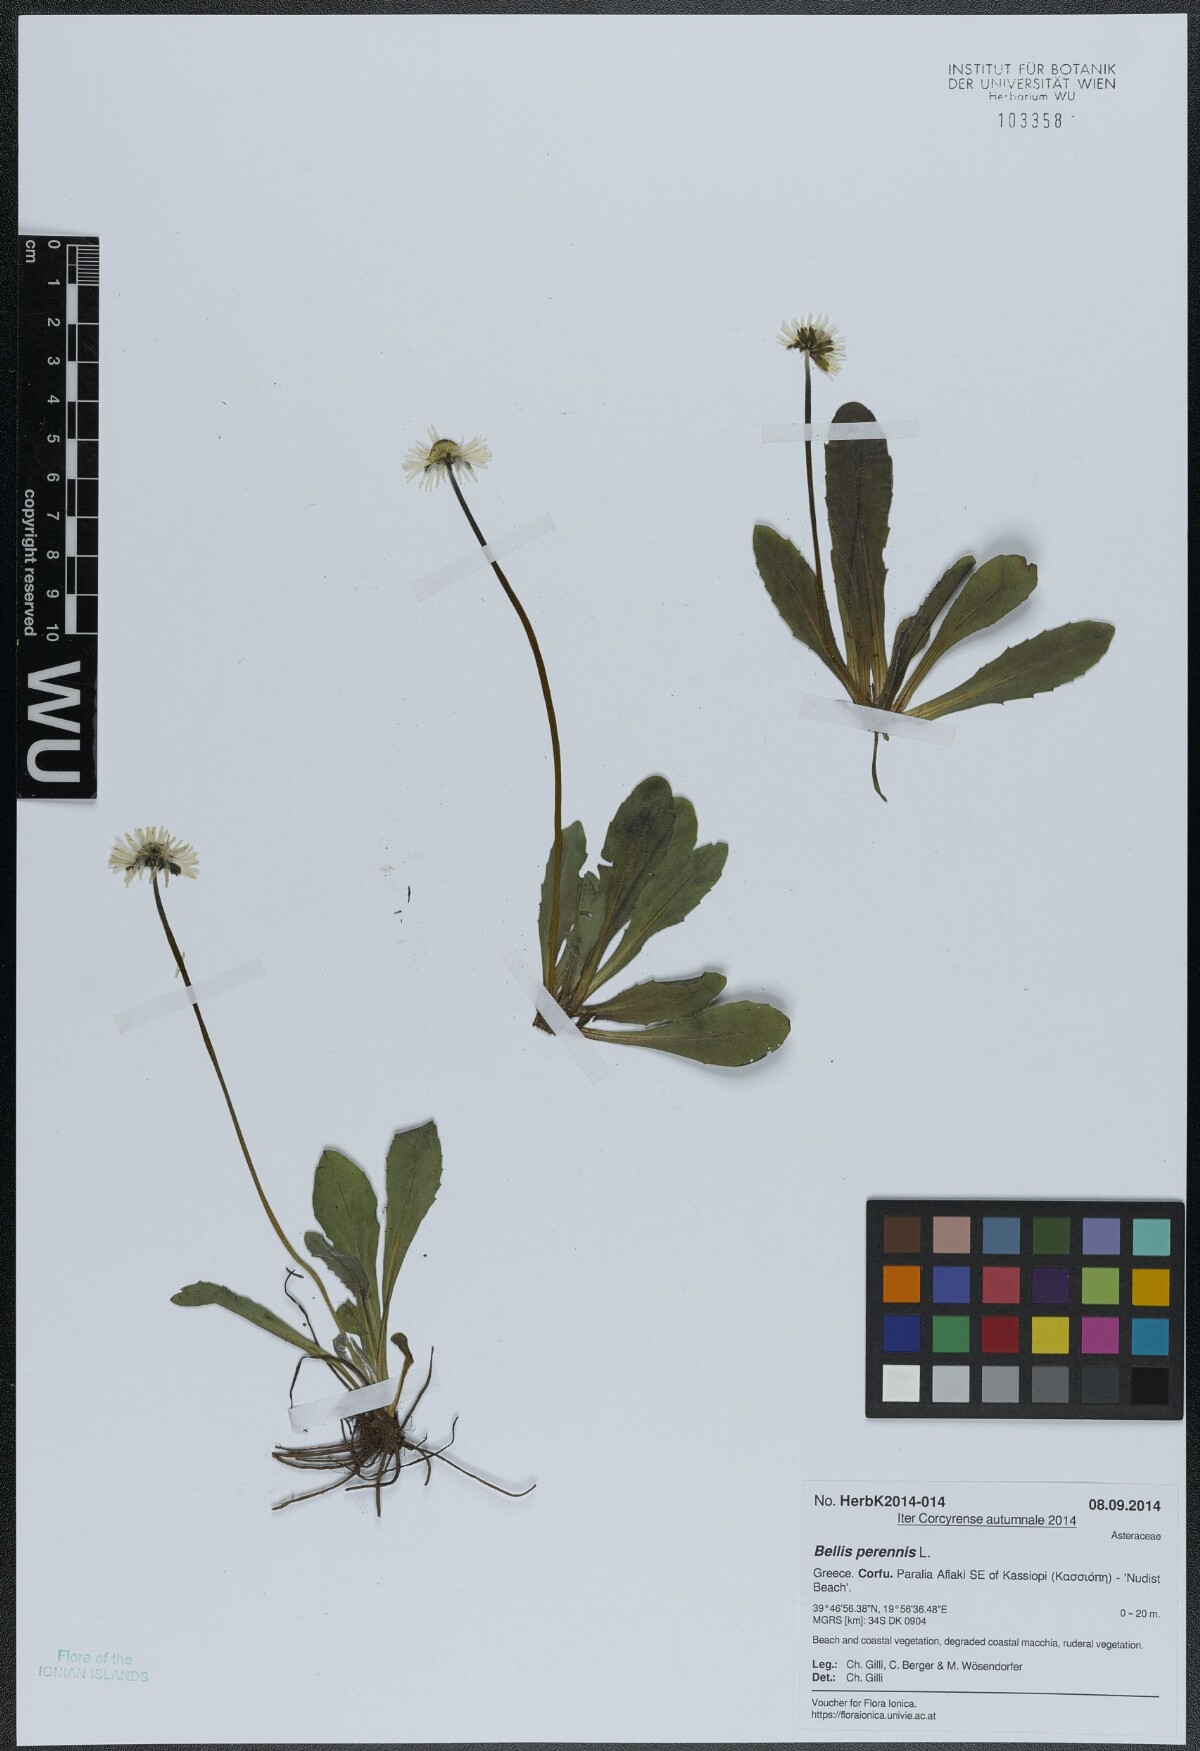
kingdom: Plantae
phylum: Tracheophyta
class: Magnoliopsida
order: Asterales
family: Asteraceae
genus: Bellis
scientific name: Bellis perennis
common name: Lawndaisy
